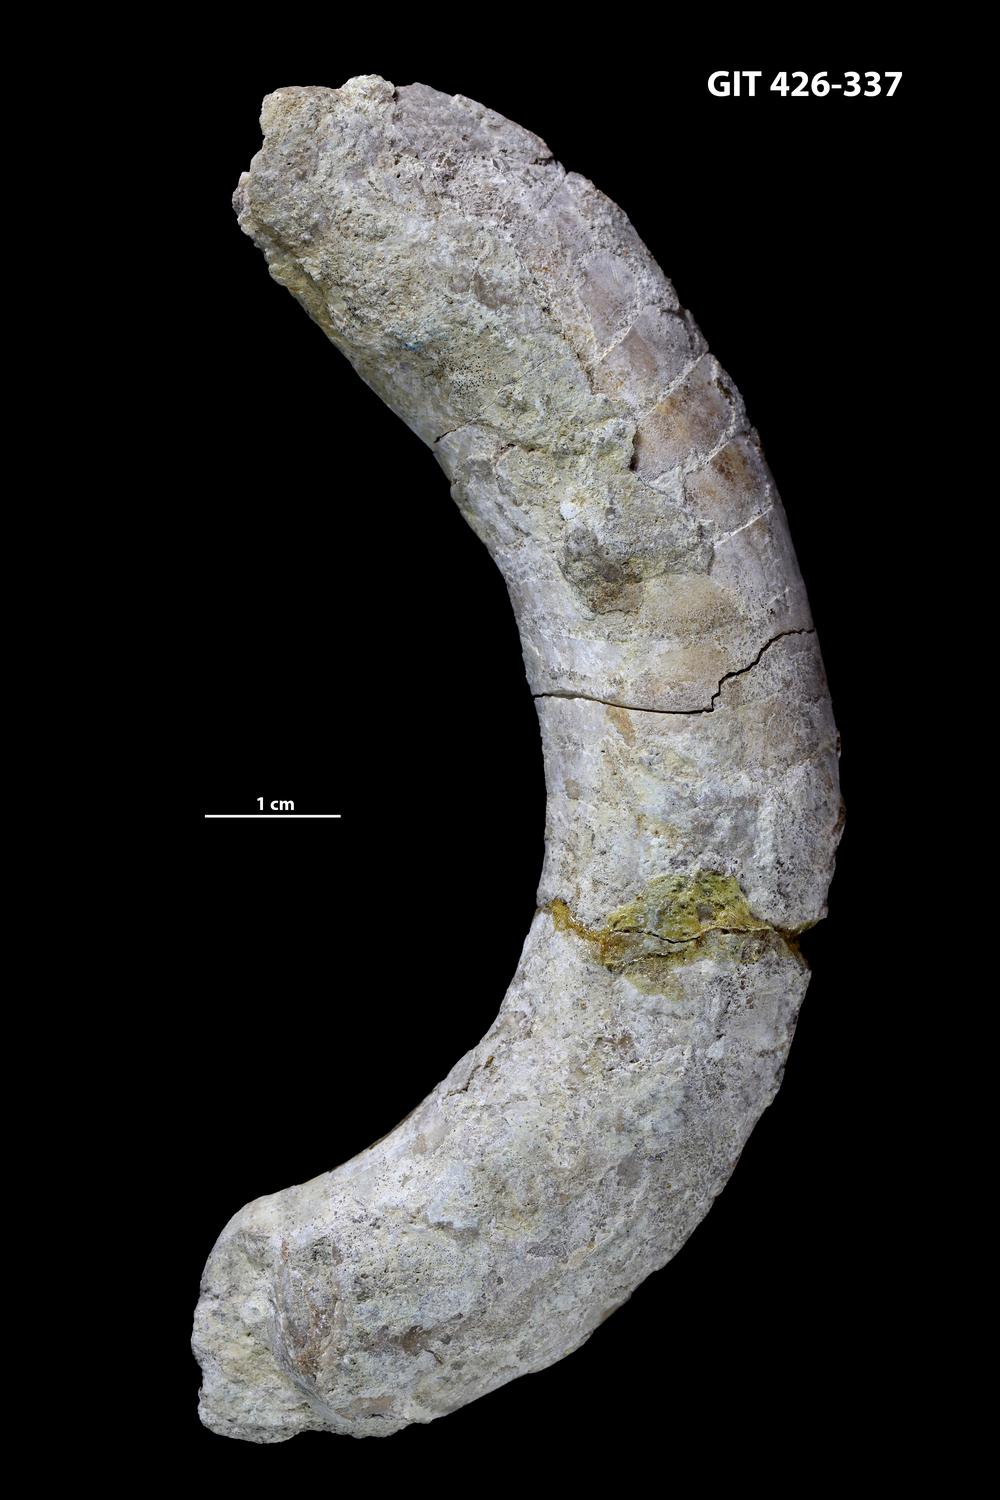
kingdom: Animalia
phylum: Mollusca
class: Cephalopoda
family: Estonioceratidae
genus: Tragoceras
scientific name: Tragoceras
